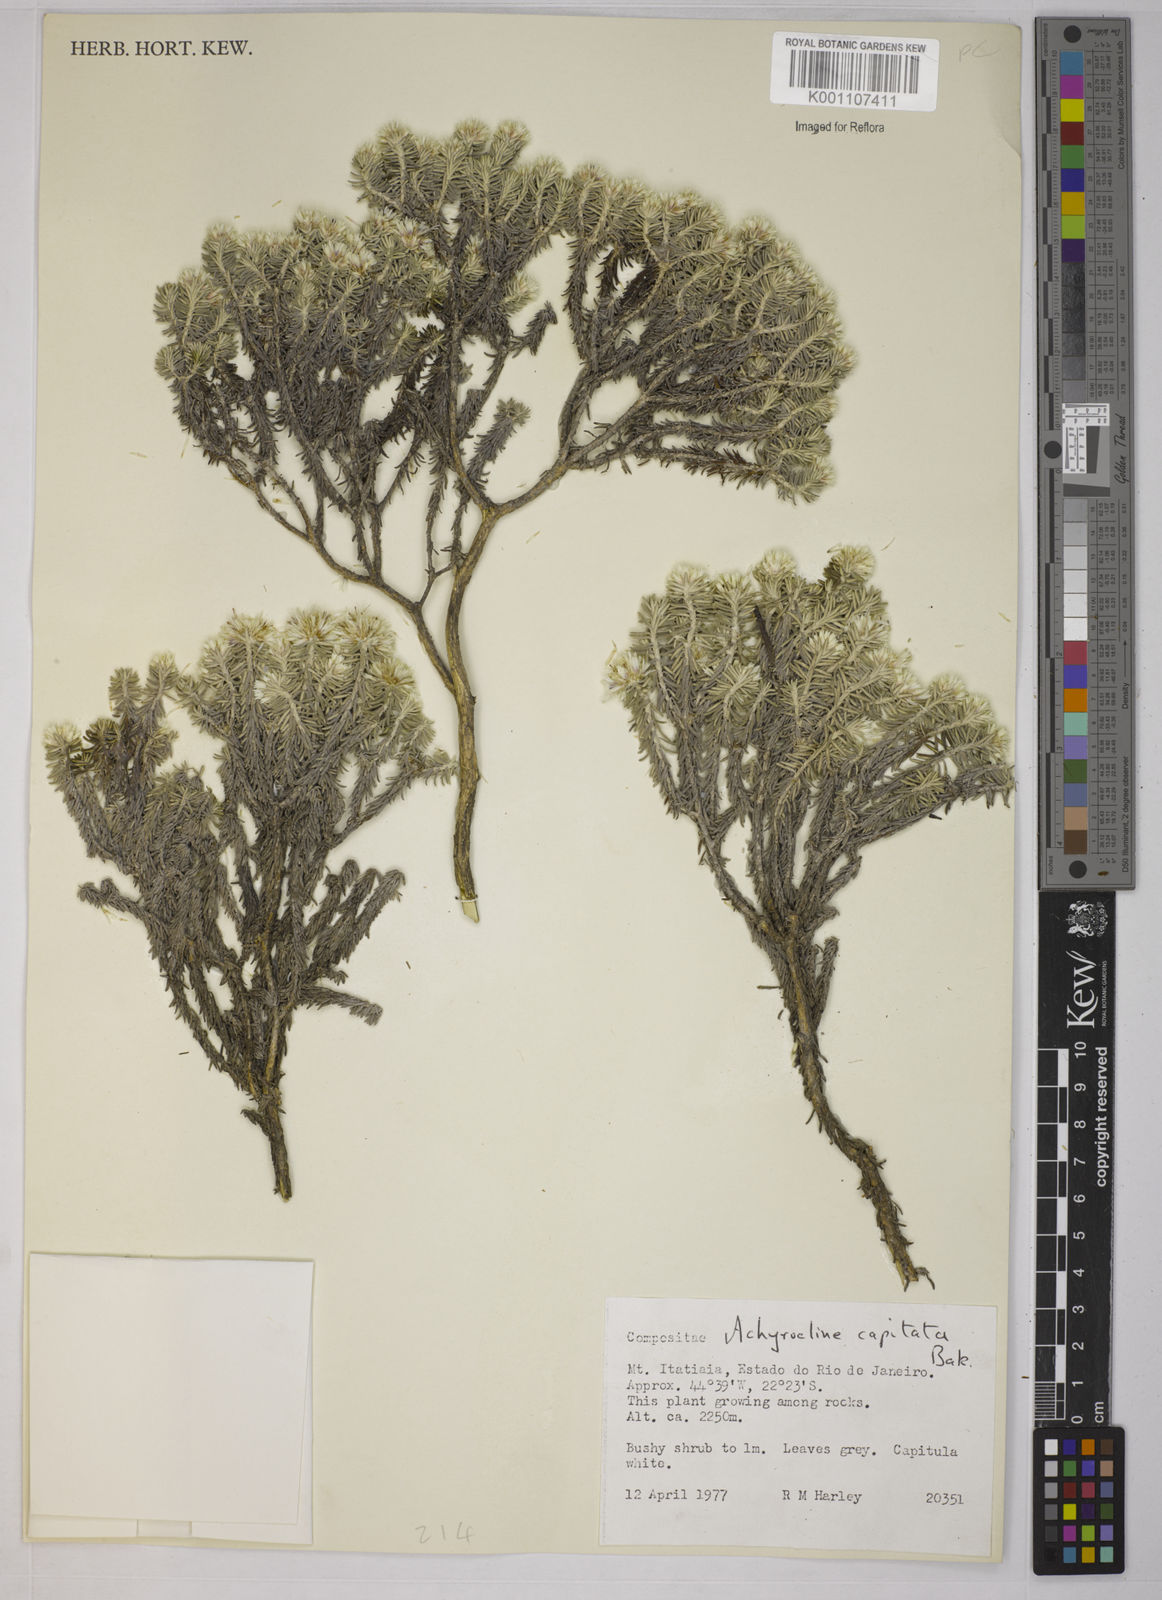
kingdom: Plantae
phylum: Tracheophyta
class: Magnoliopsida
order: Asterales
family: Asteraceae
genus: Chionolaena
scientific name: Chionolaena capitata
